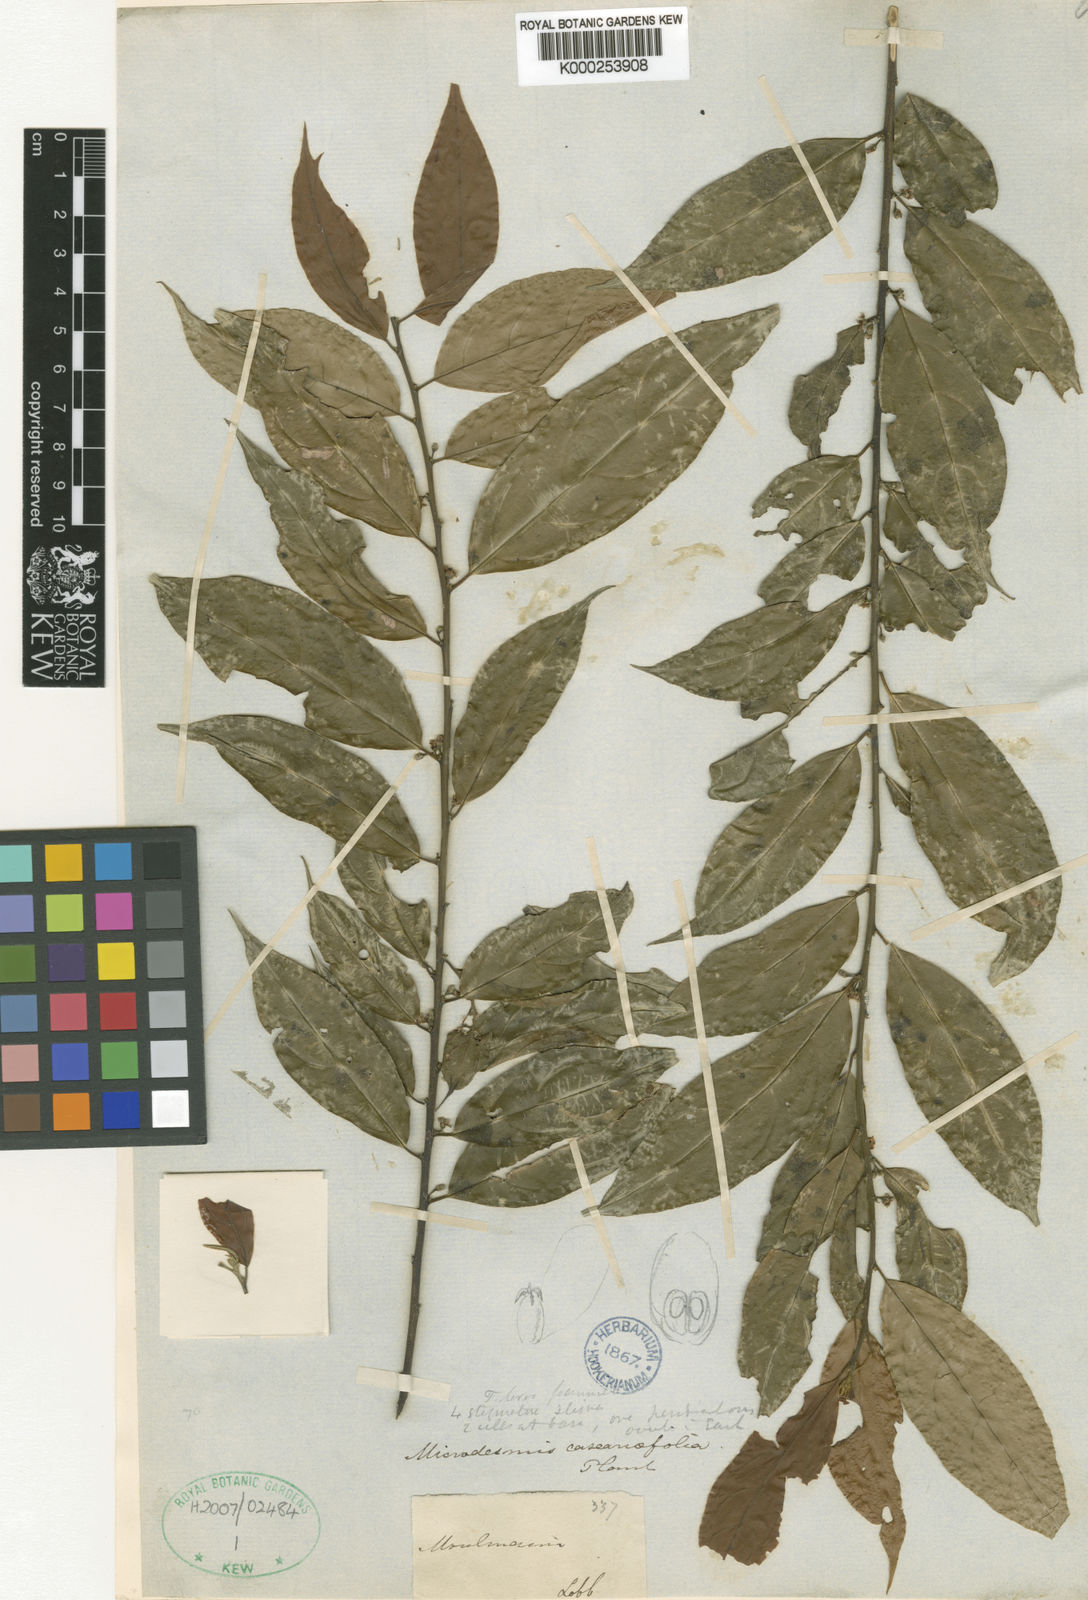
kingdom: Plantae
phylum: Tracheophyta
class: Magnoliopsida
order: Malpighiales
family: Pandaceae
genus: Microdesmis
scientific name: Microdesmis
